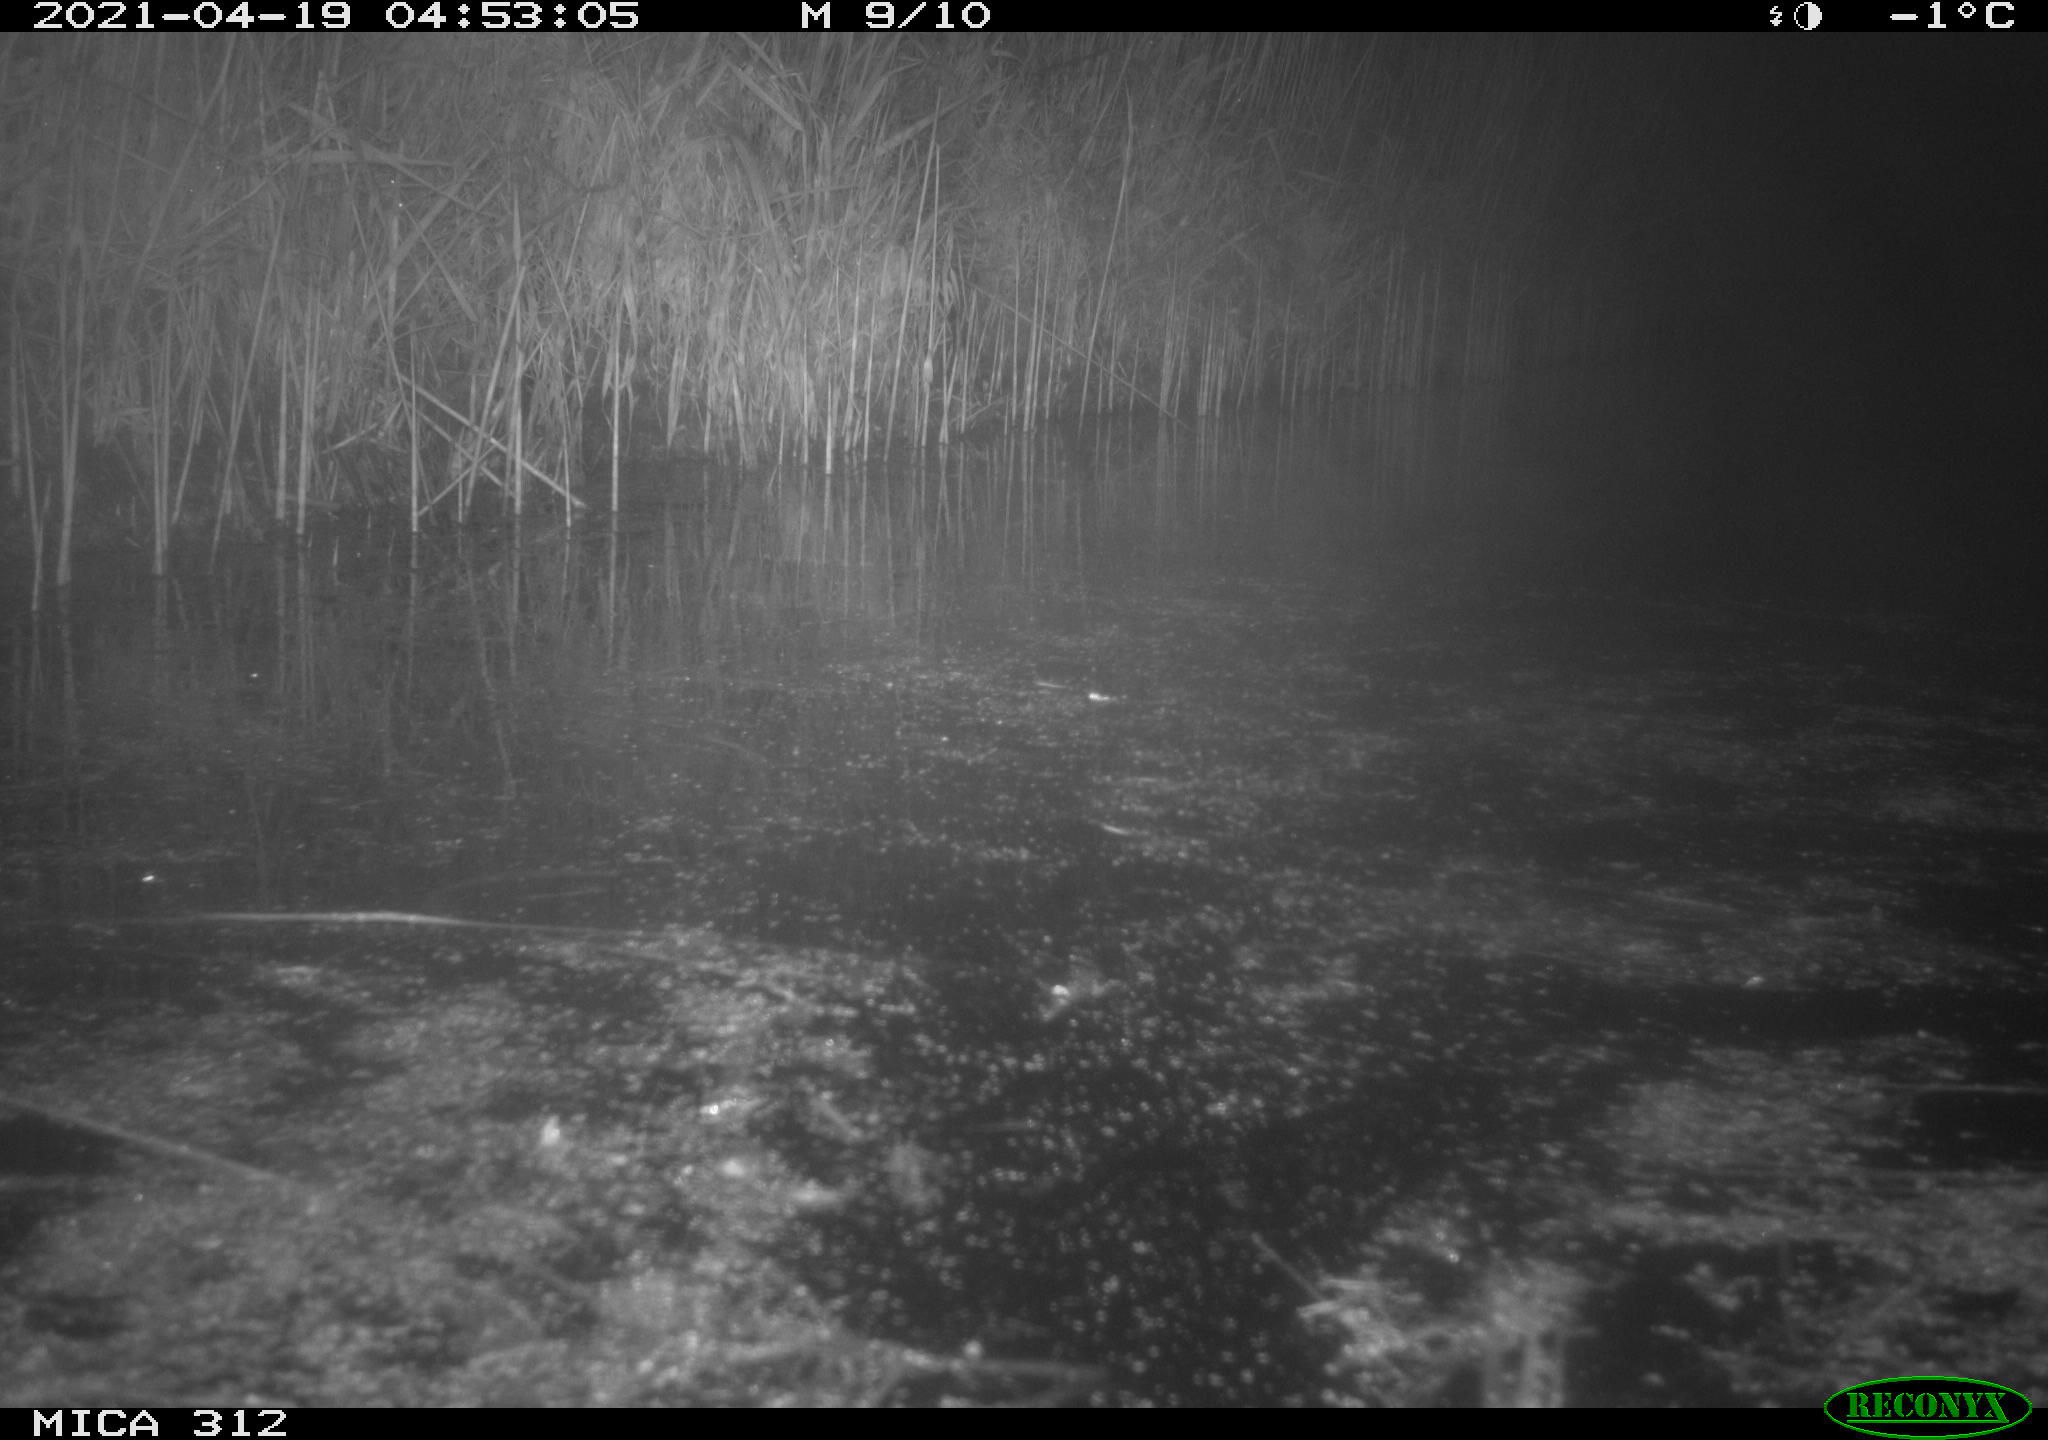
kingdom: Animalia
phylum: Chordata
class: Aves
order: Anseriformes
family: Anatidae
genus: Anas
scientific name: Anas platyrhynchos
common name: Mallard
